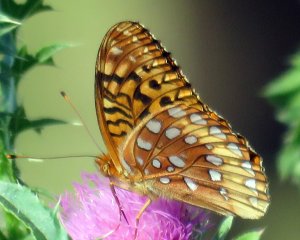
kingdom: Animalia
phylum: Arthropoda
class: Insecta
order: Lepidoptera
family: Nymphalidae
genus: Speyeria
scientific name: Speyeria cybele
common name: Great Spangled Fritillary
